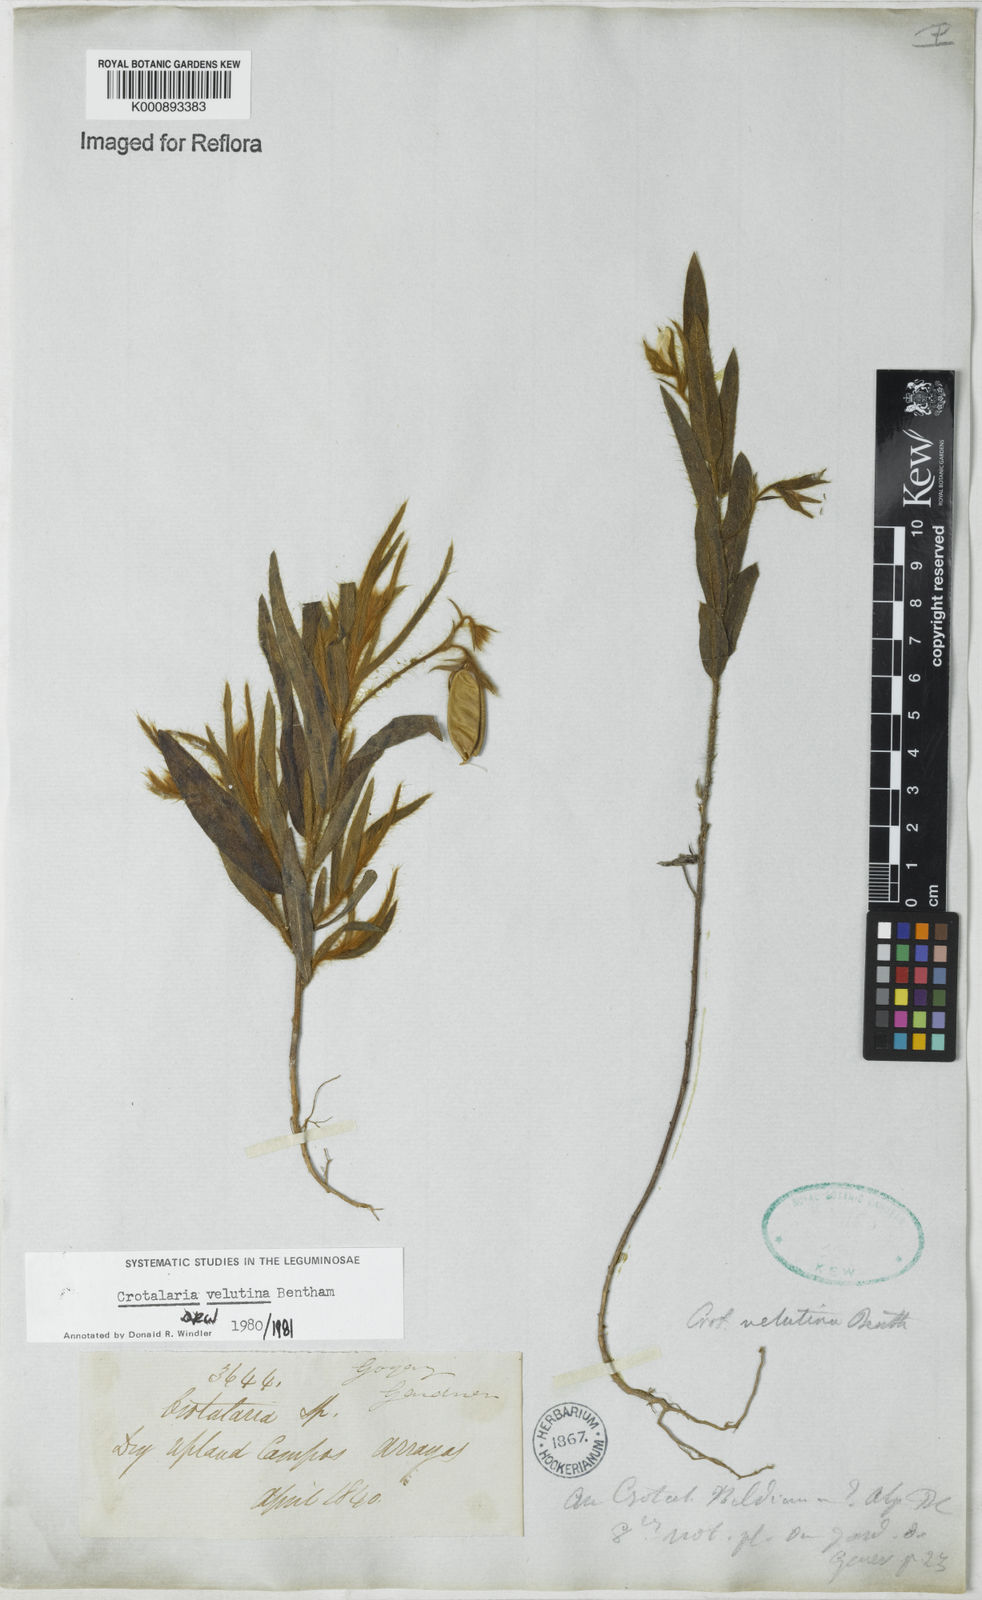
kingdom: Plantae
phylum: Tracheophyta
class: Magnoliopsida
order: Fabales
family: Fabaceae
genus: Crotalaria
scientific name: Crotalaria balansae
